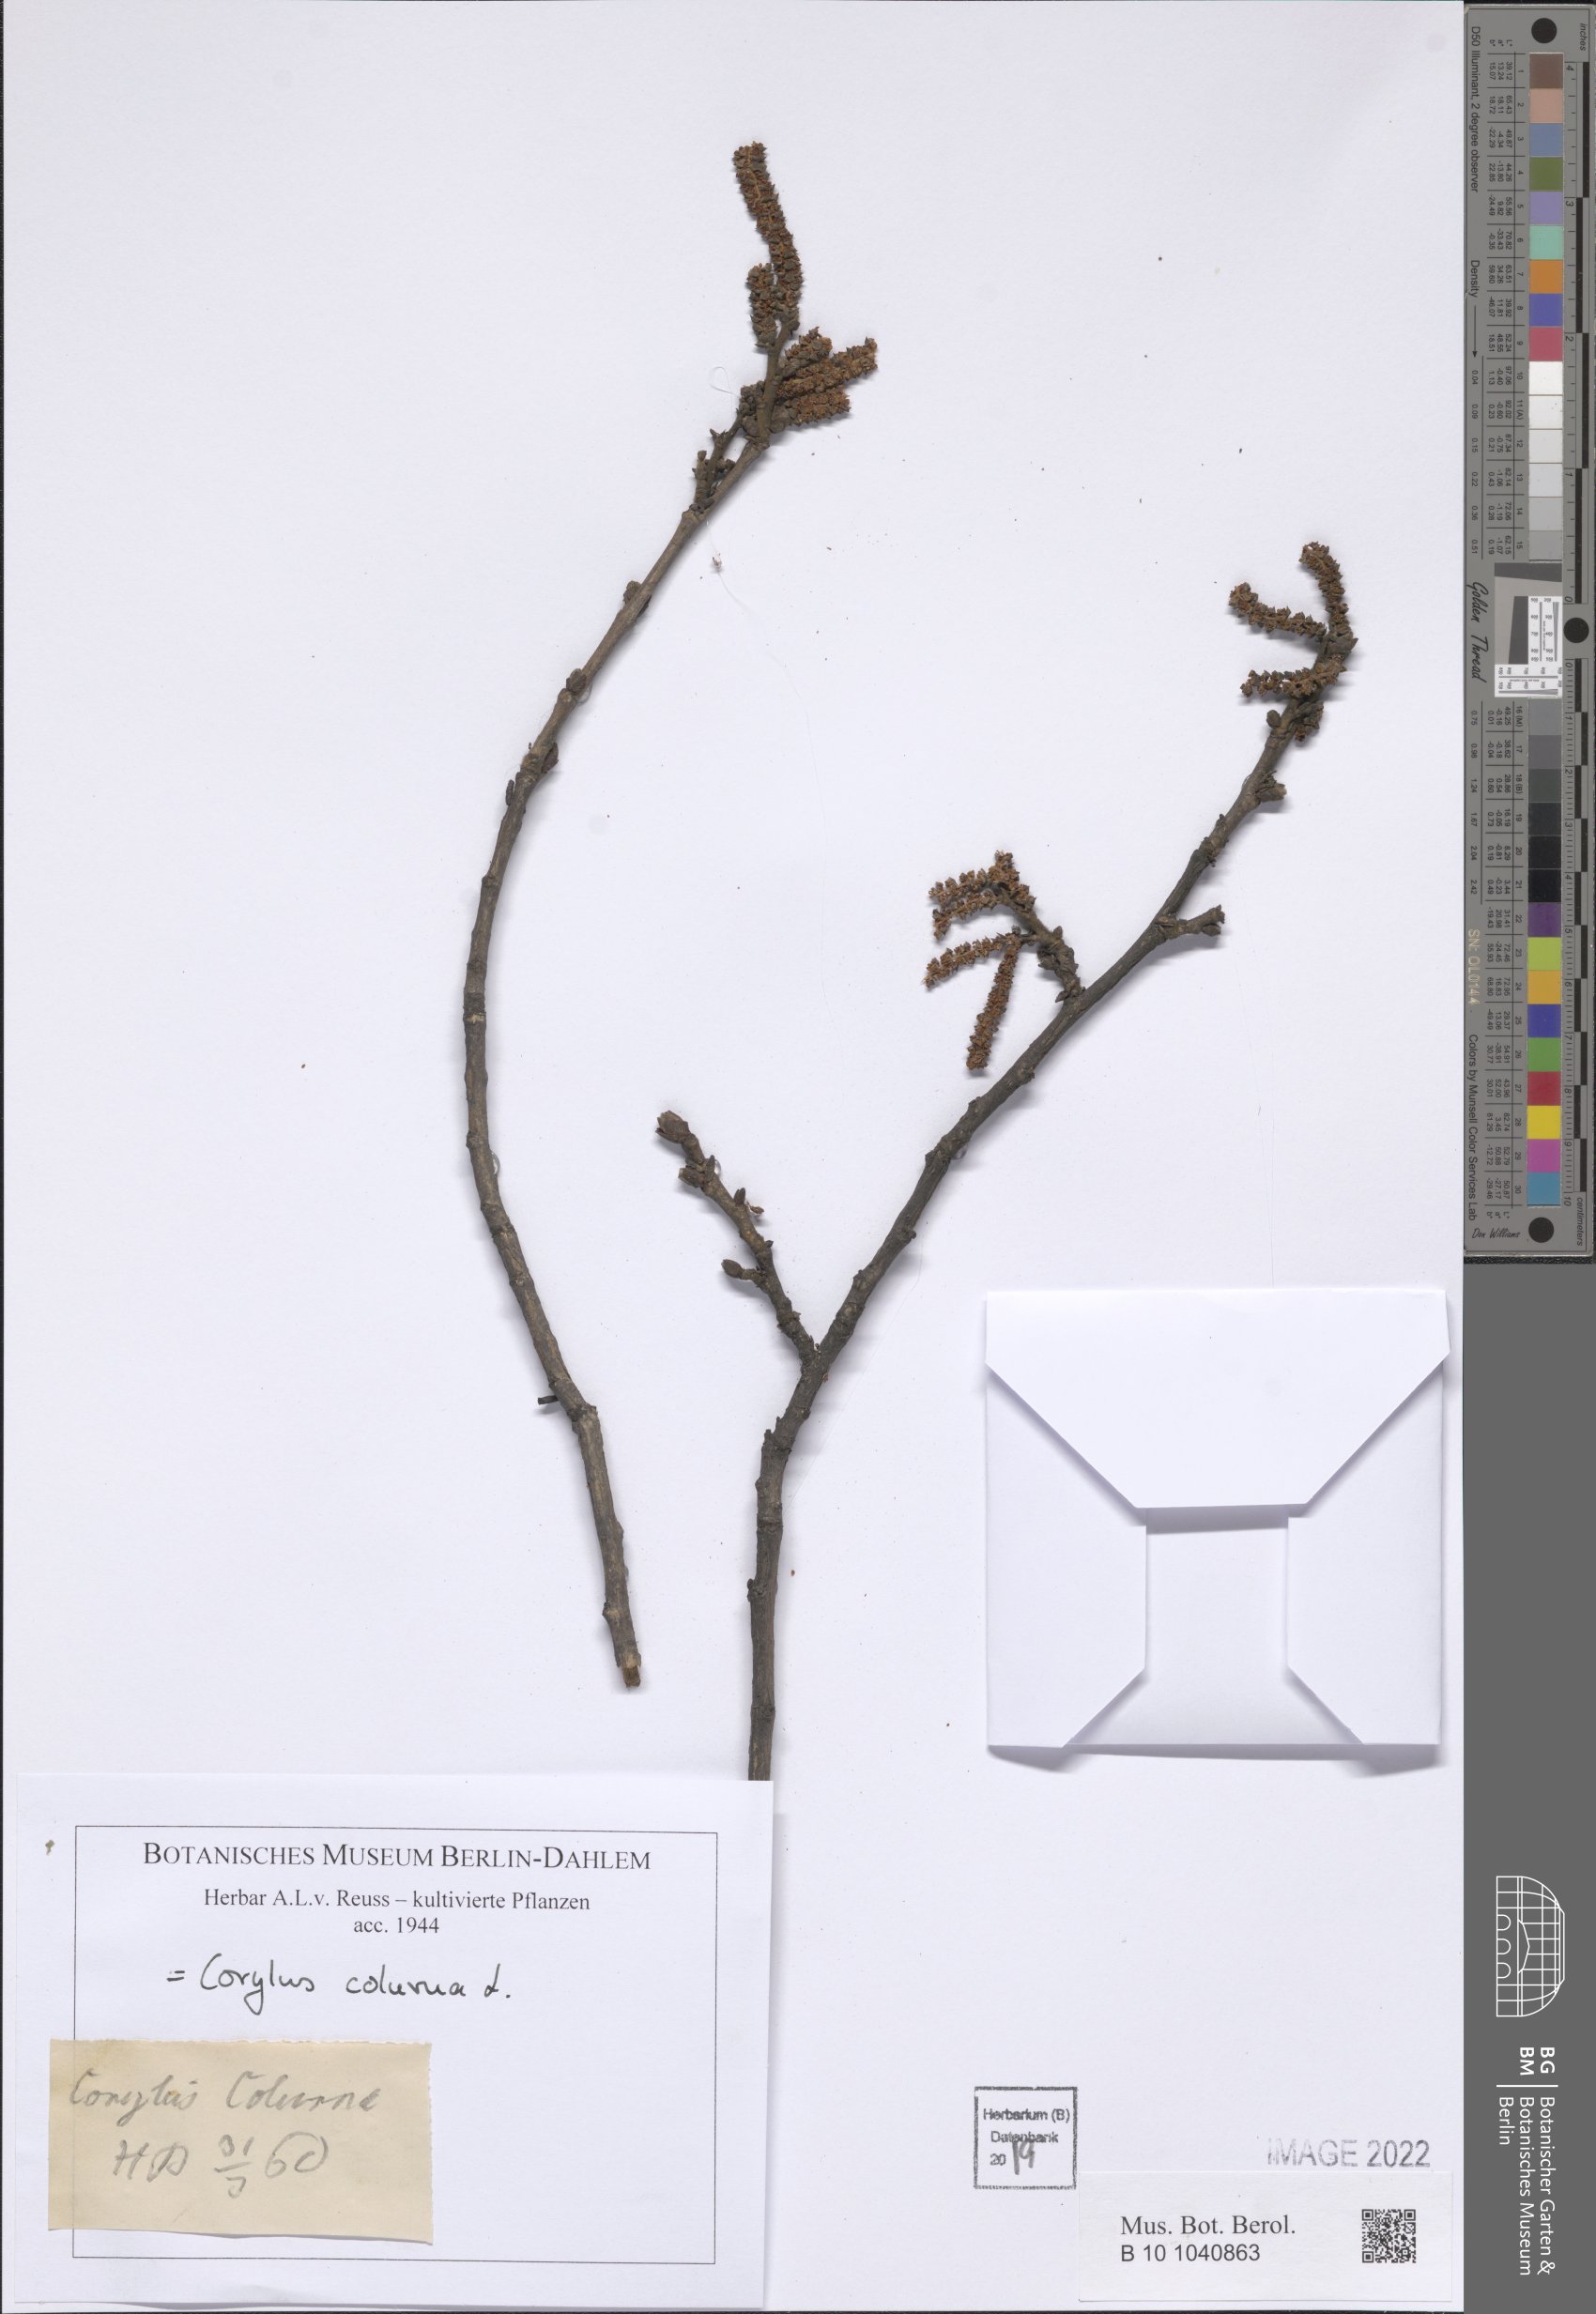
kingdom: Plantae
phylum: Tracheophyta
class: Magnoliopsida
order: Fagales
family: Betulaceae
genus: Corylus
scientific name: Corylus colurna
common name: Turkish hazel
